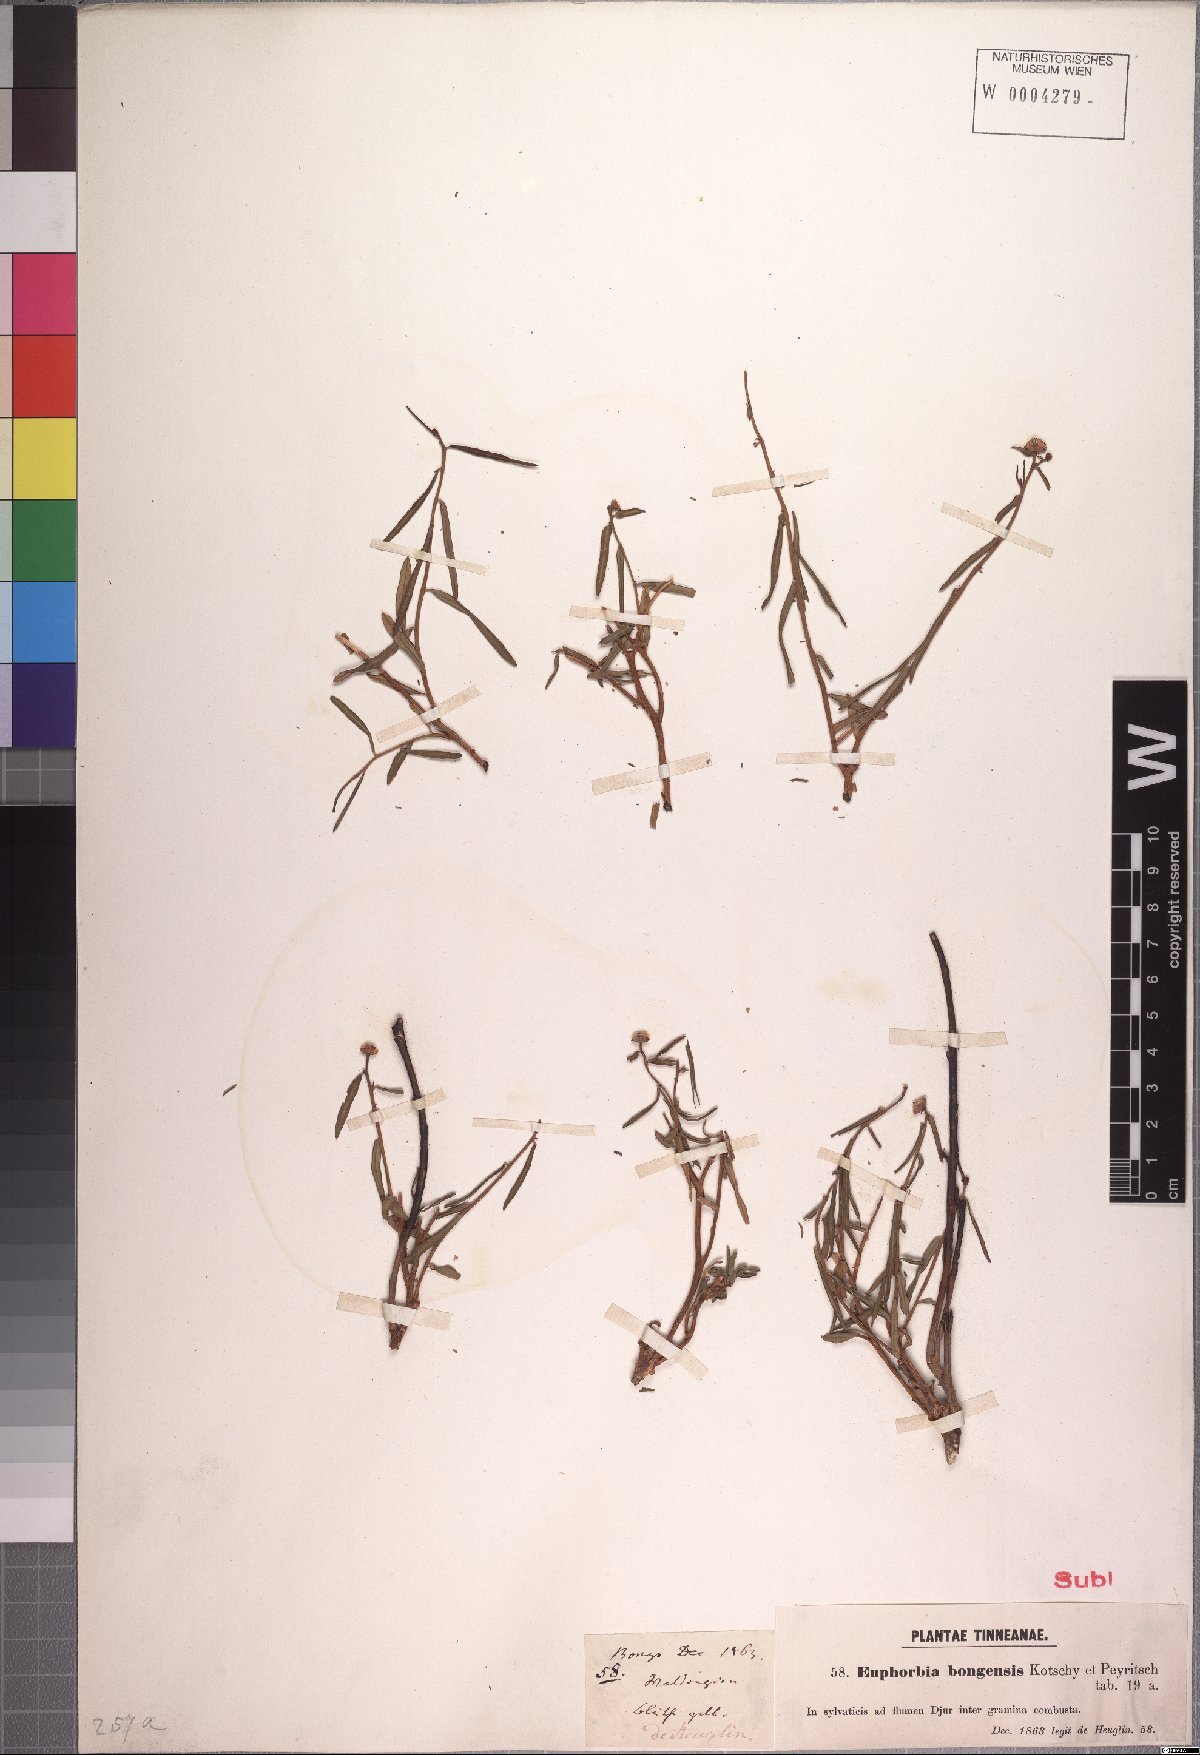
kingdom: Plantae
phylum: Tracheophyta
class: Magnoliopsida
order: Malpighiales
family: Euphorbiaceae
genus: Euphorbia
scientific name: Euphorbia bongensis
